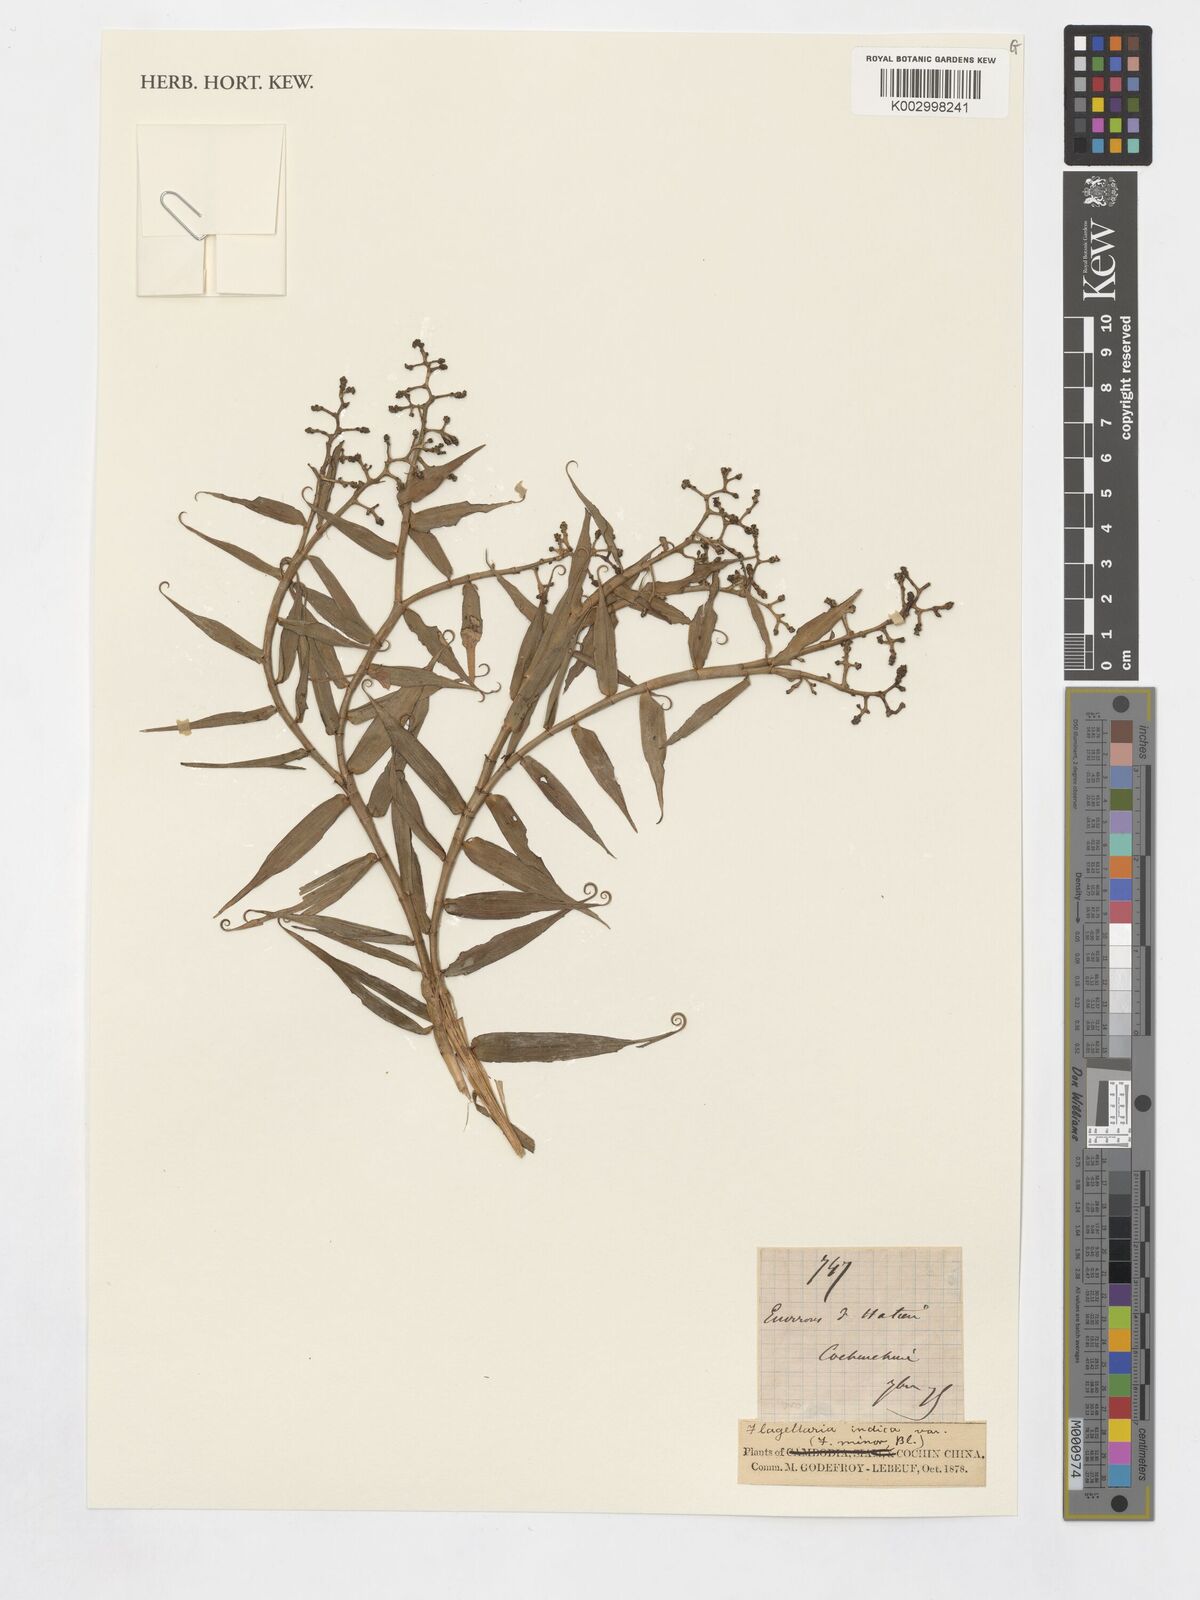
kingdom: Plantae
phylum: Tracheophyta
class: Liliopsida
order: Poales
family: Flagellariaceae
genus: Flagellaria
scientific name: Flagellaria indica
